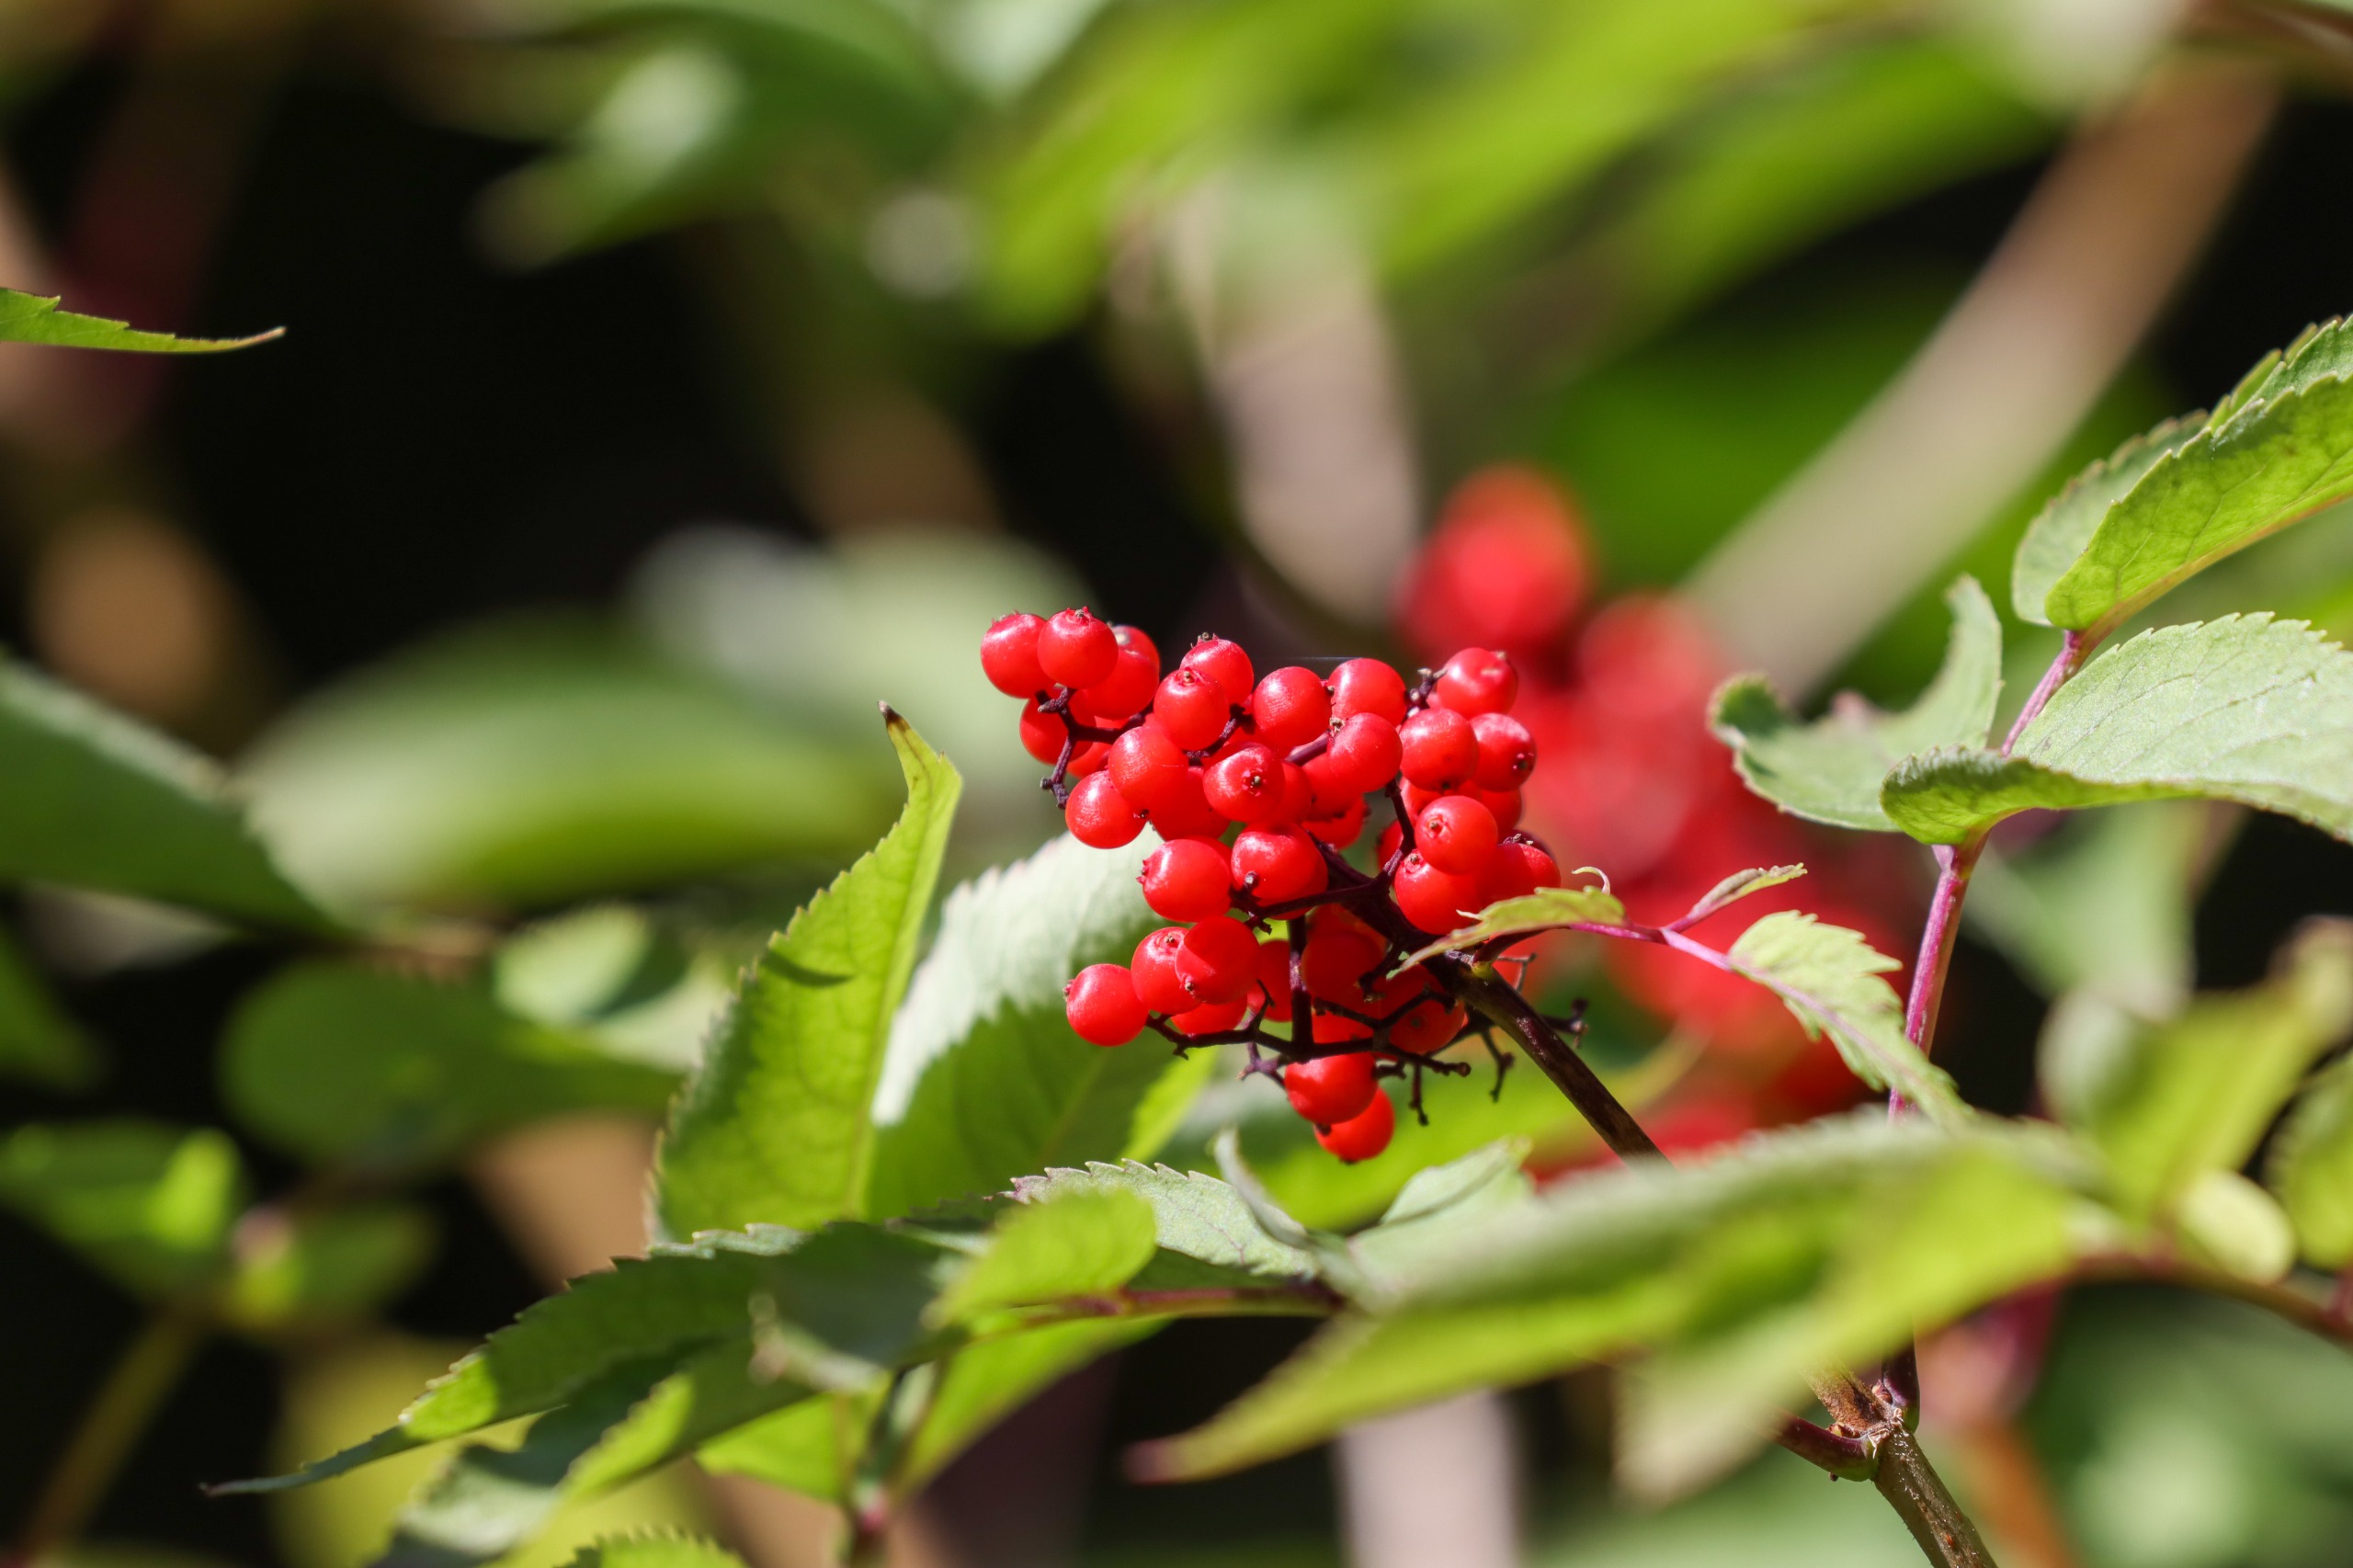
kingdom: Plantae
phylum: Tracheophyta
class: Magnoliopsida
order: Dipsacales
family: Viburnaceae
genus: Sambucus
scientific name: Sambucus racemosa
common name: Drue-hyld
